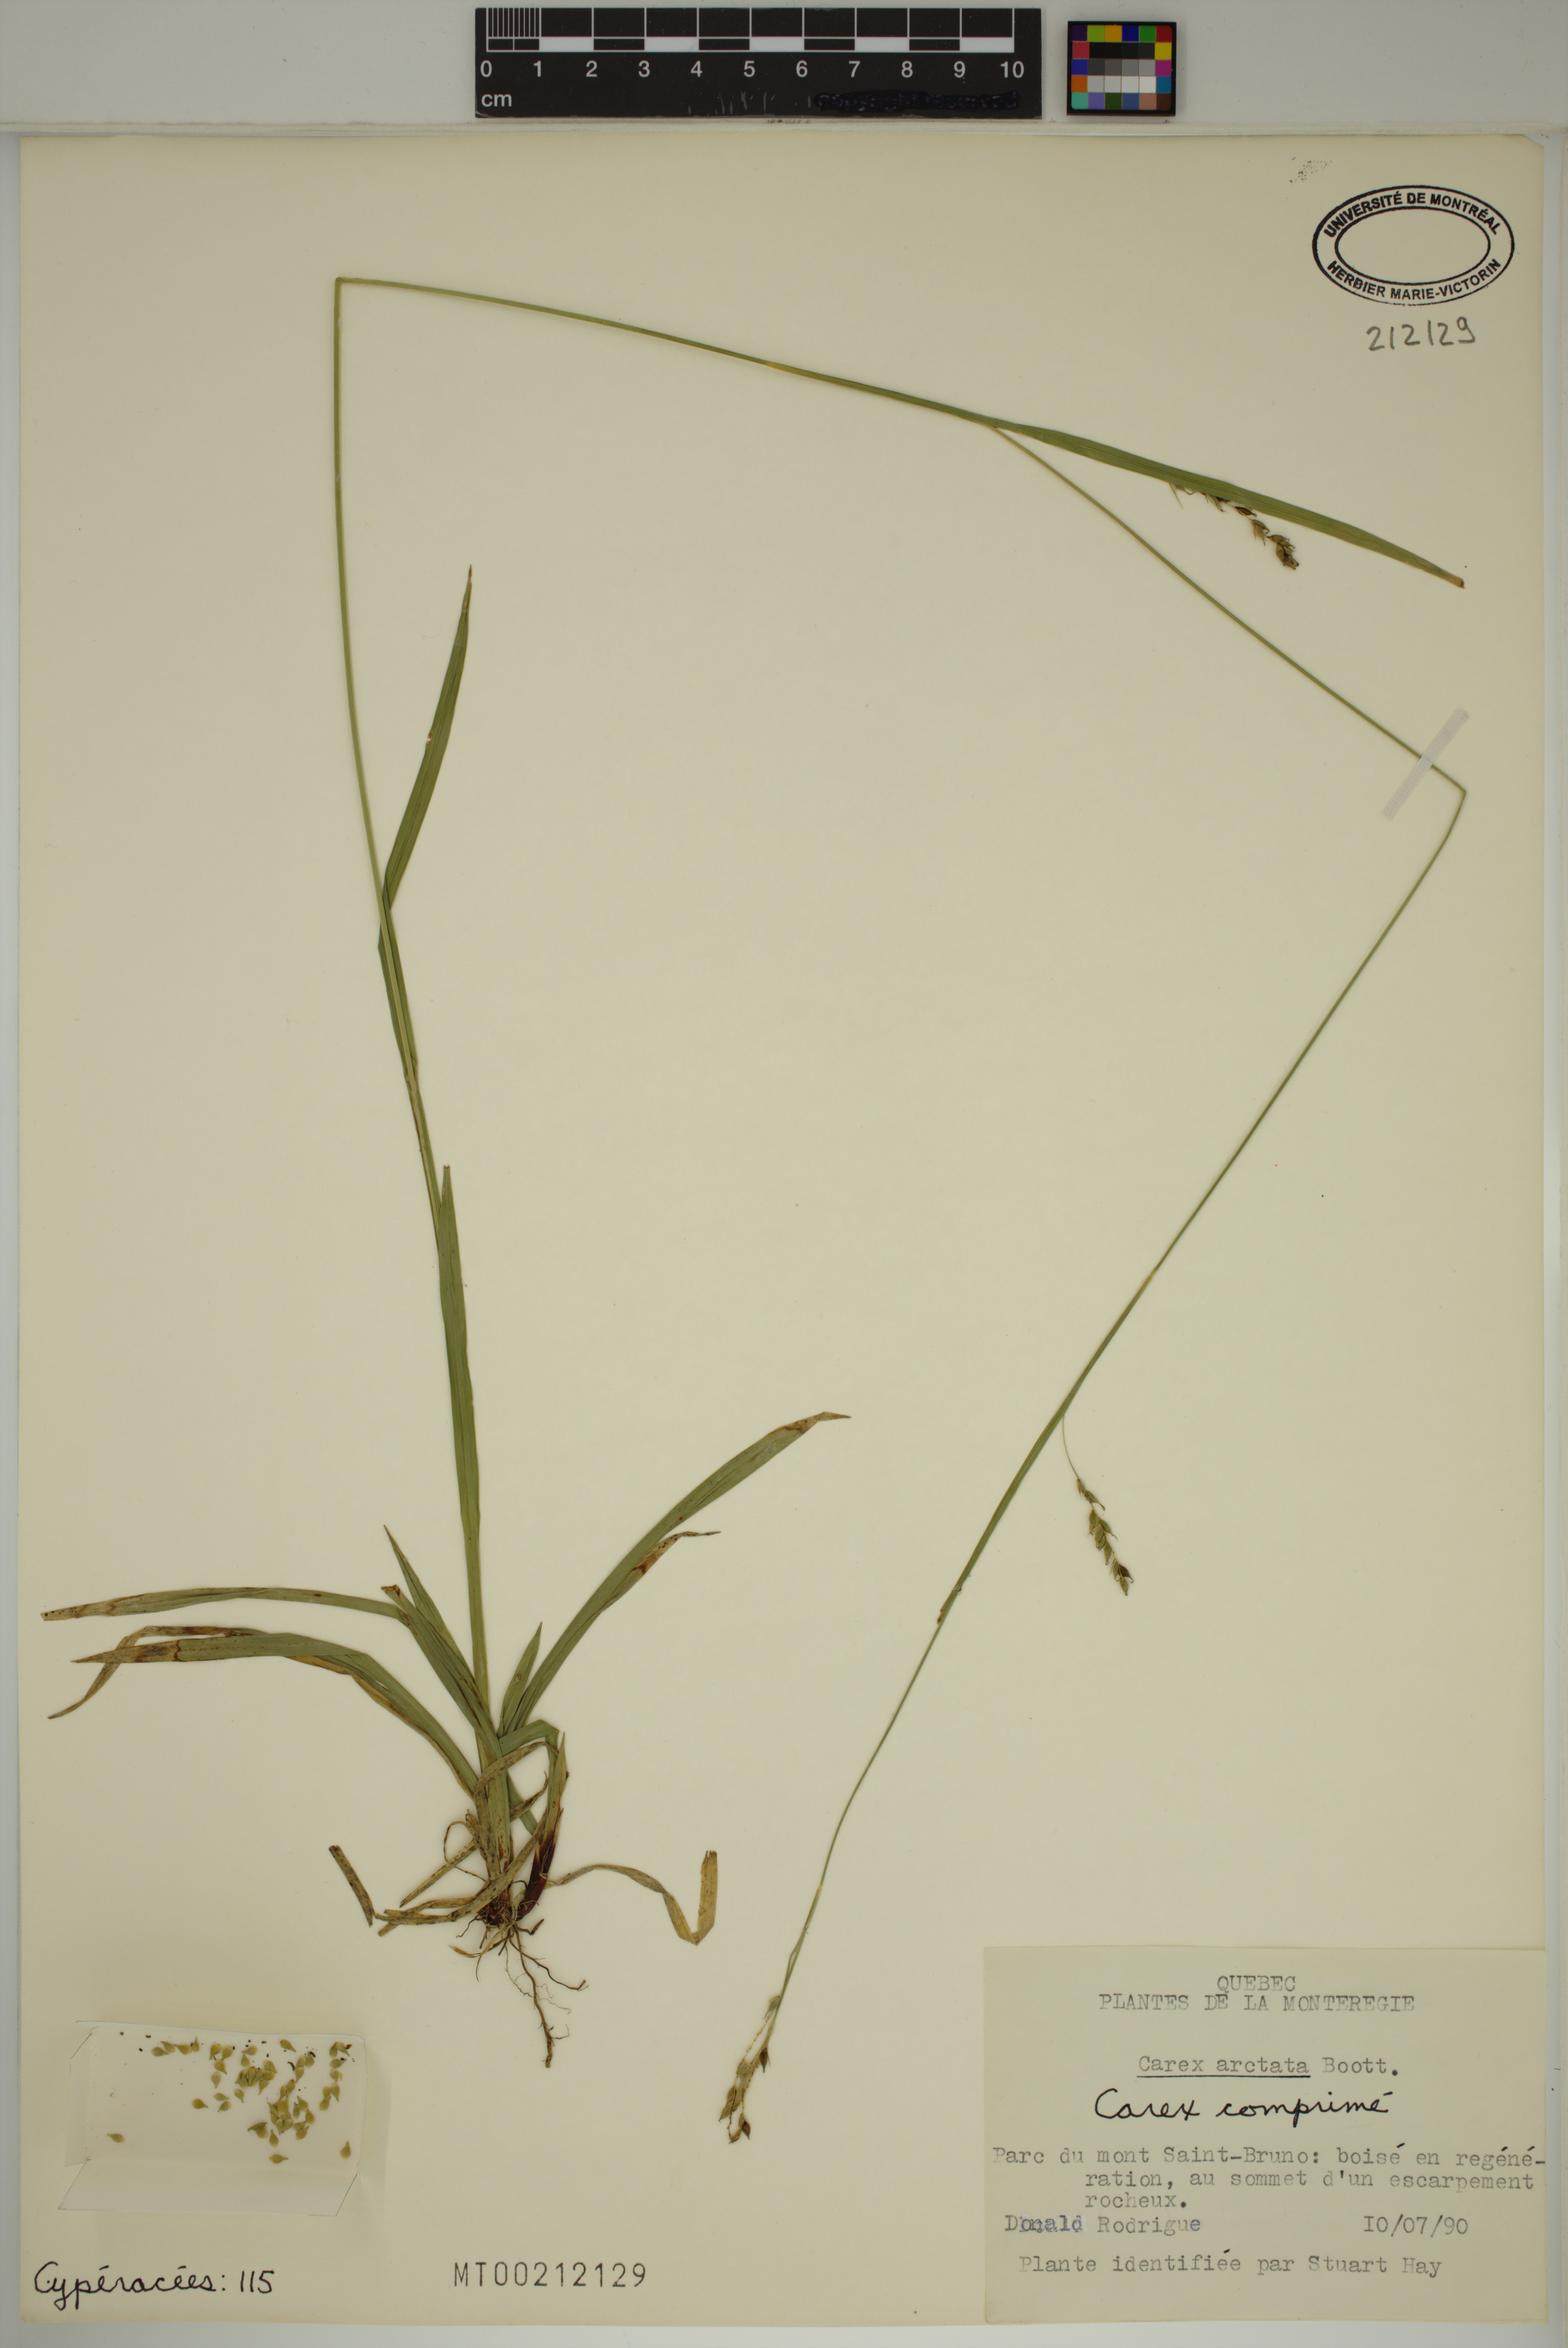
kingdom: Plantae
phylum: Tracheophyta
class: Liliopsida
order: Poales
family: Cyperaceae
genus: Carex
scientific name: Carex arctata
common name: Black sedge
